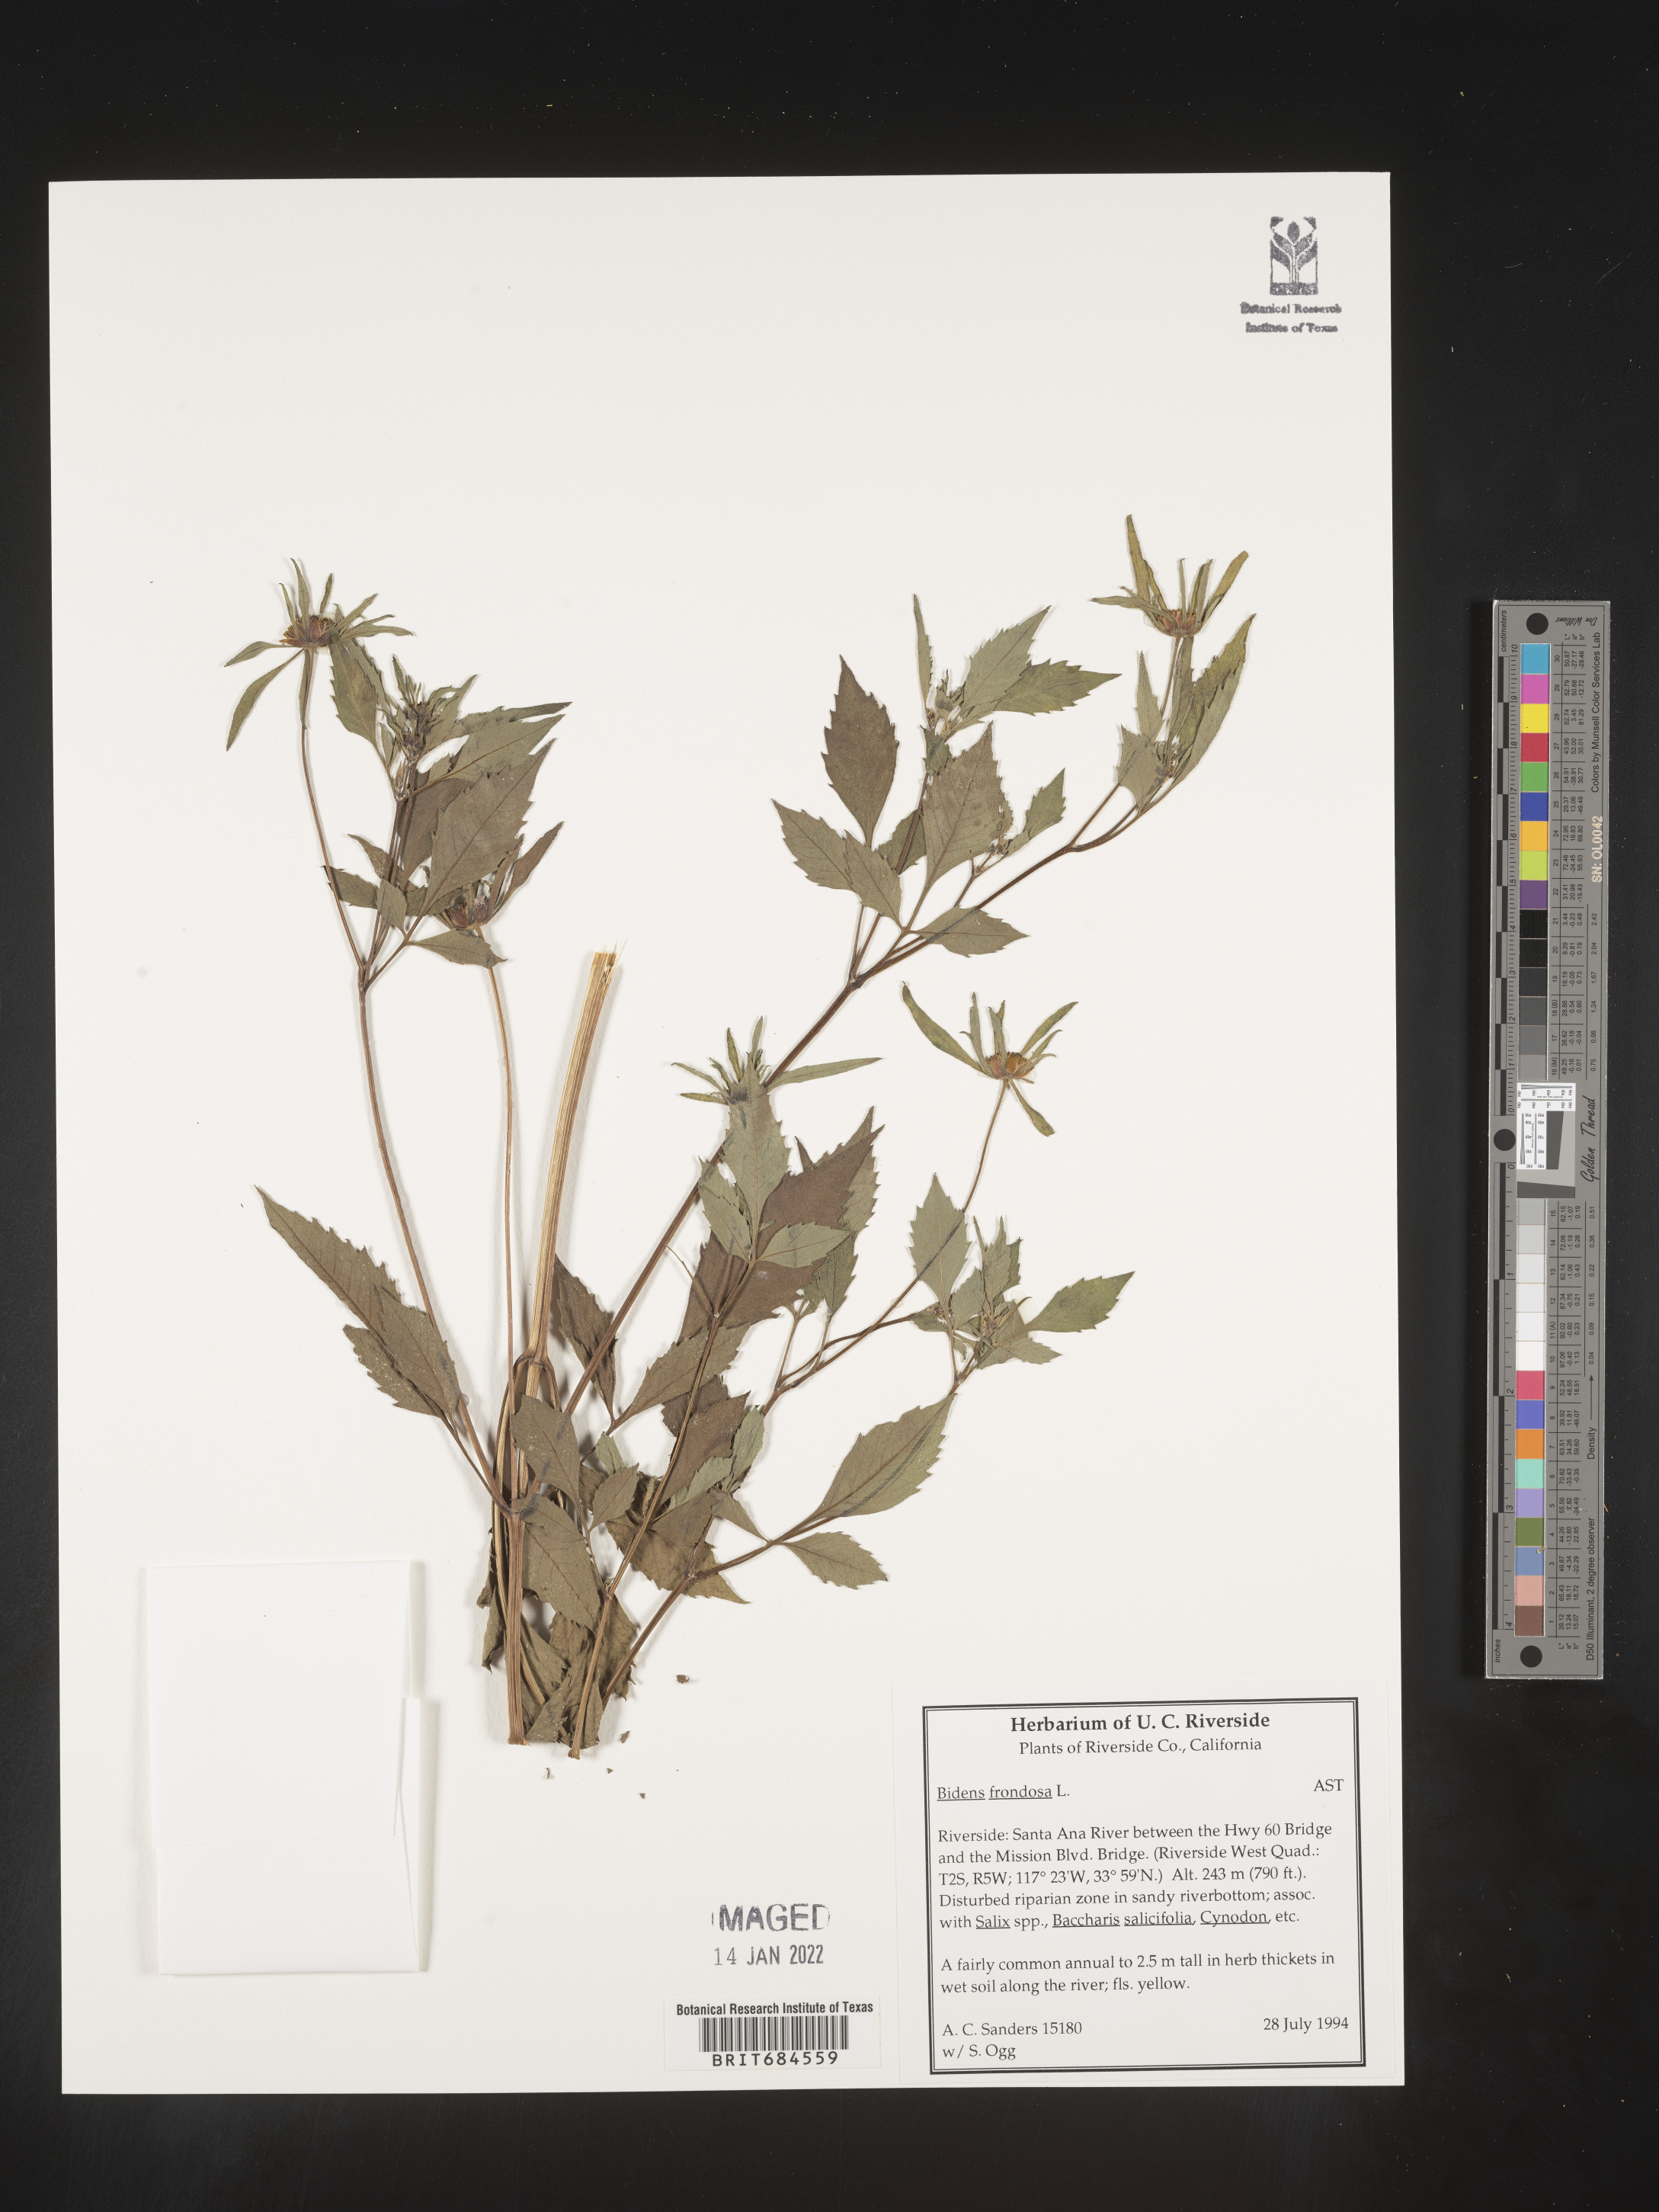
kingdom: Plantae
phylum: Tracheophyta
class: Magnoliopsida
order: Asterales
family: Asteraceae
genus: Bidens
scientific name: Bidens frondosa
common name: Beggarticks
